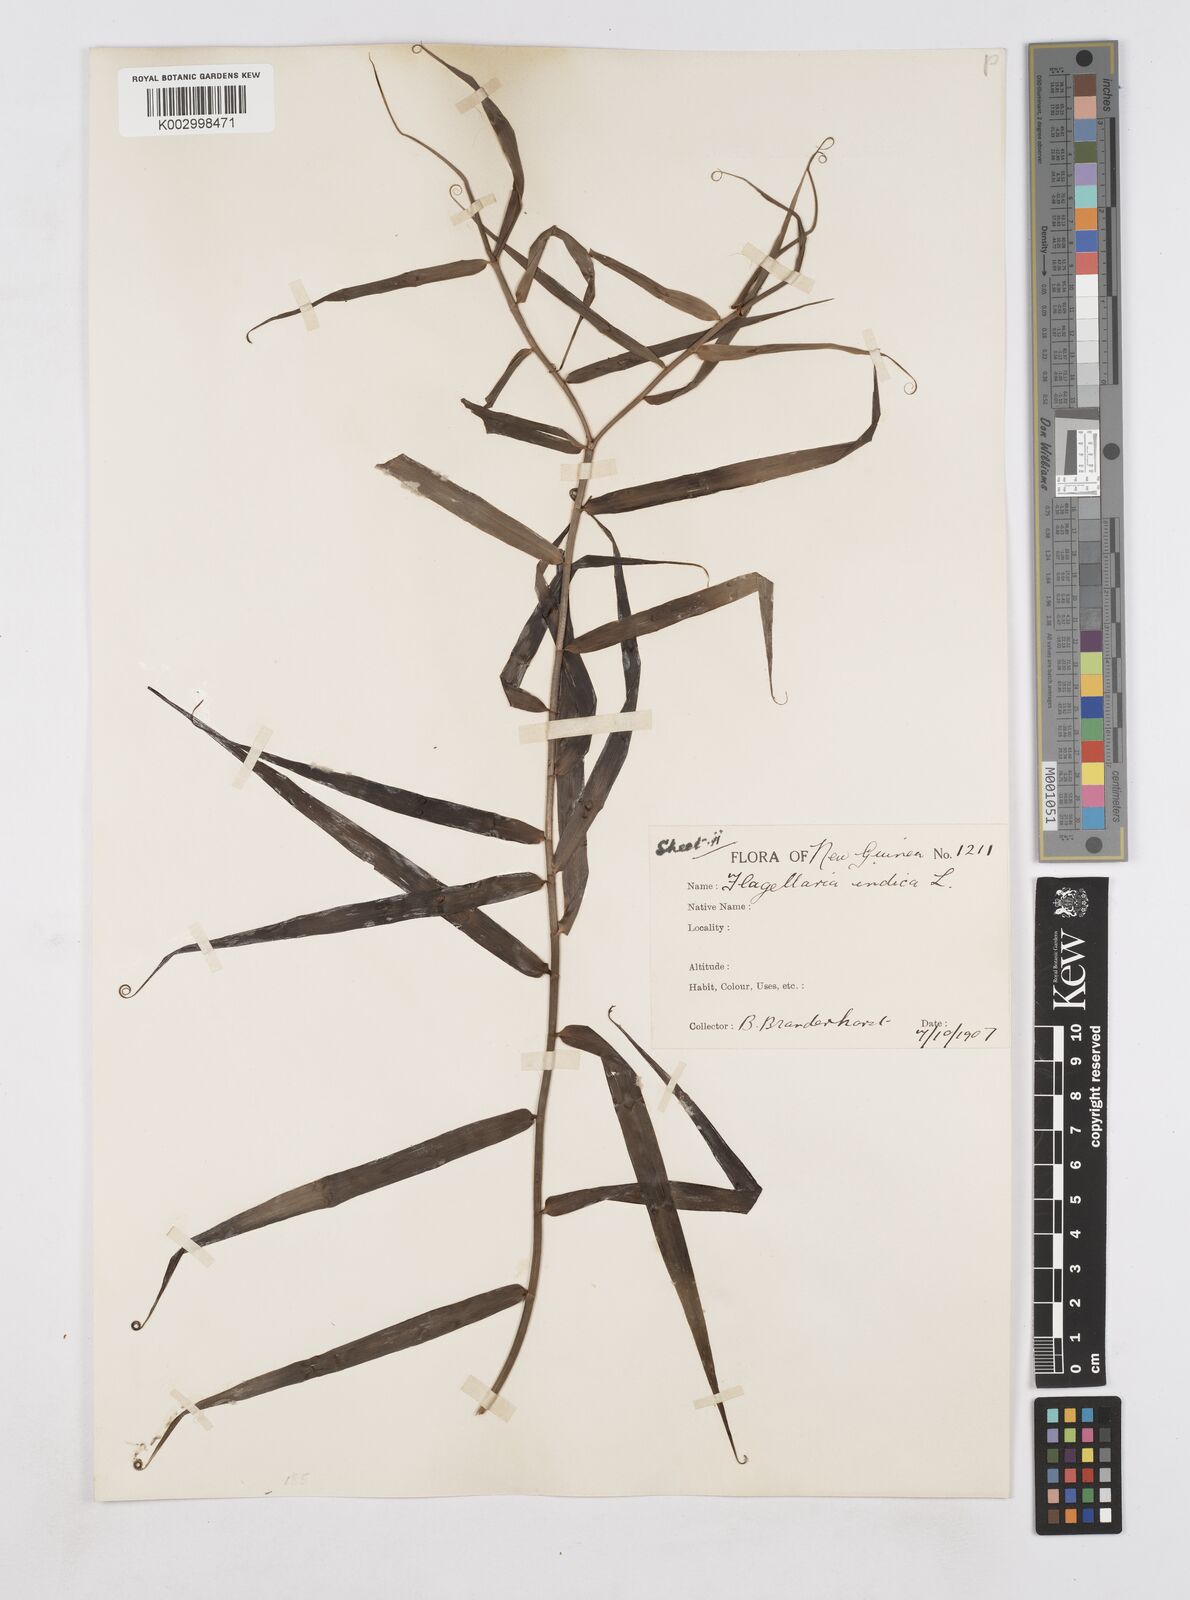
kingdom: Plantae
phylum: Tracheophyta
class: Liliopsida
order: Poales
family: Flagellariaceae
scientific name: Flagellariaceae
